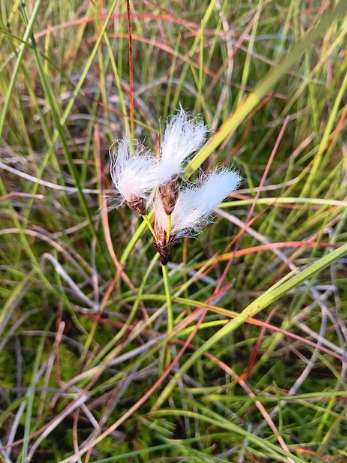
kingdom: Plantae
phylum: Tracheophyta
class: Liliopsida
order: Poales
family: Cyperaceae
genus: Eriophorum
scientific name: Eriophorum angustifolium
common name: Smalbladet kæruld
